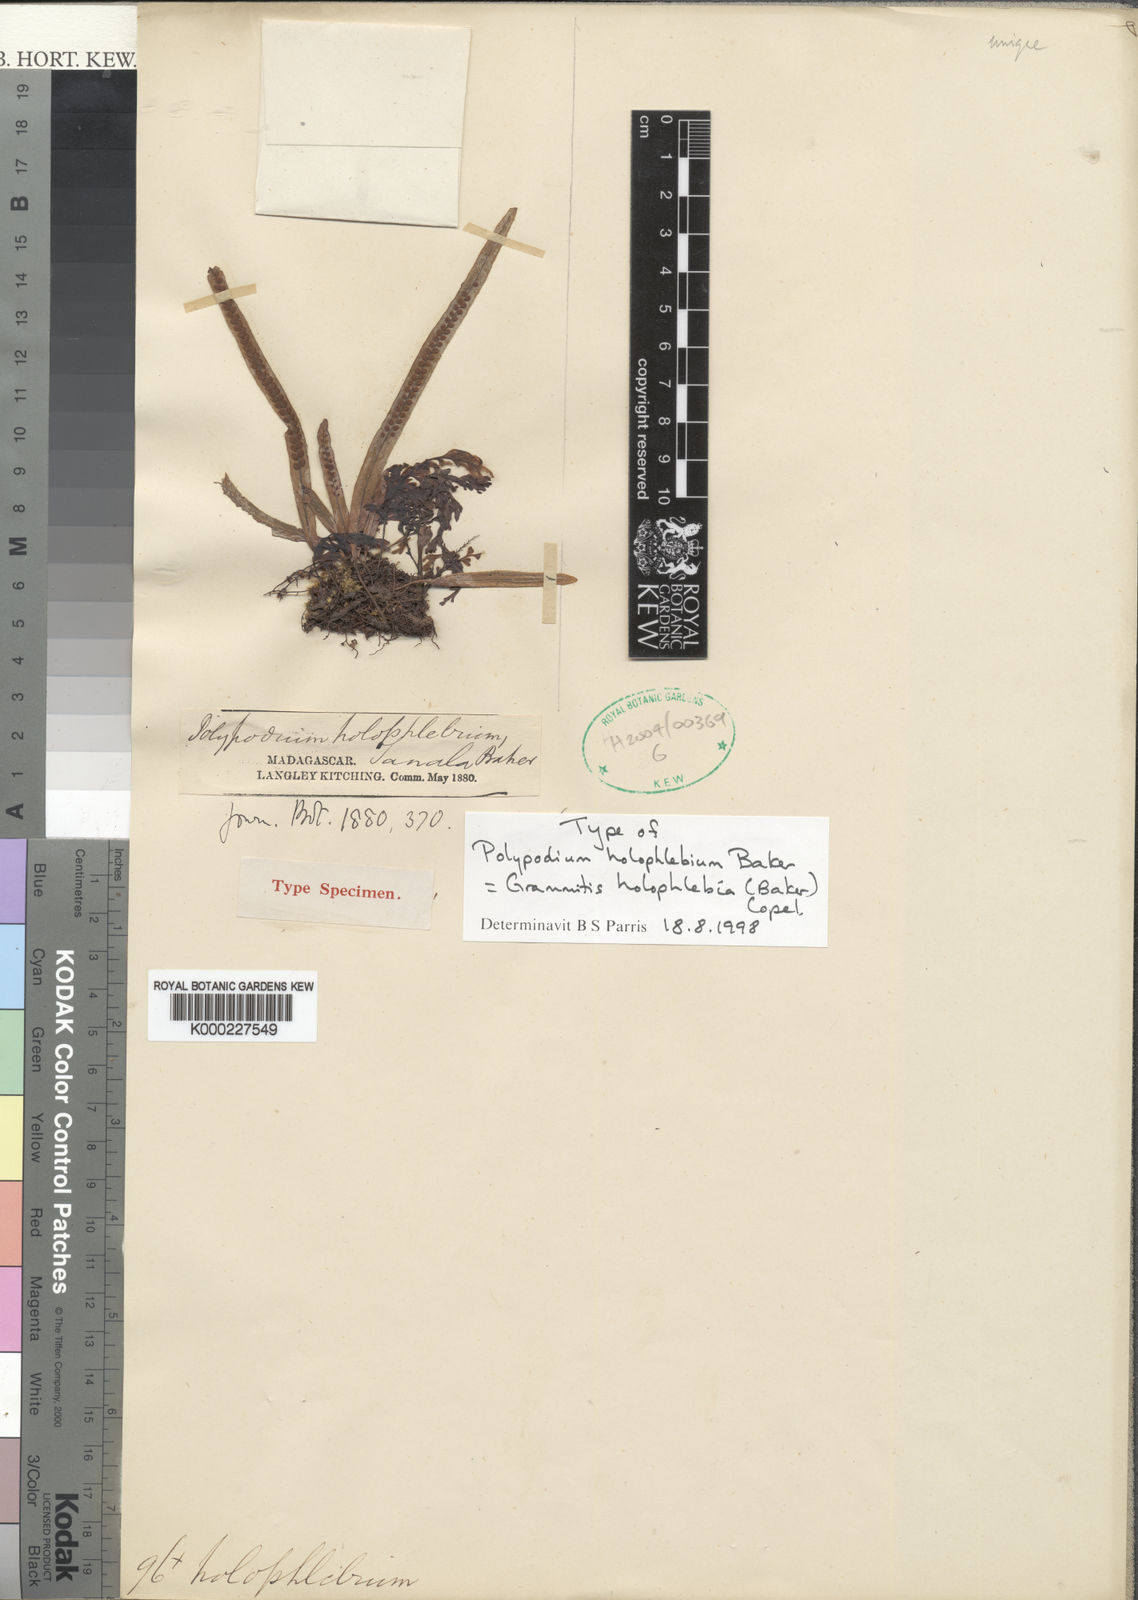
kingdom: Plantae
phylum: Tracheophyta
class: Polypodiopsida
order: Polypodiales
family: Polypodiaceae
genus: Grammitis
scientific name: Grammitis holophlebia
